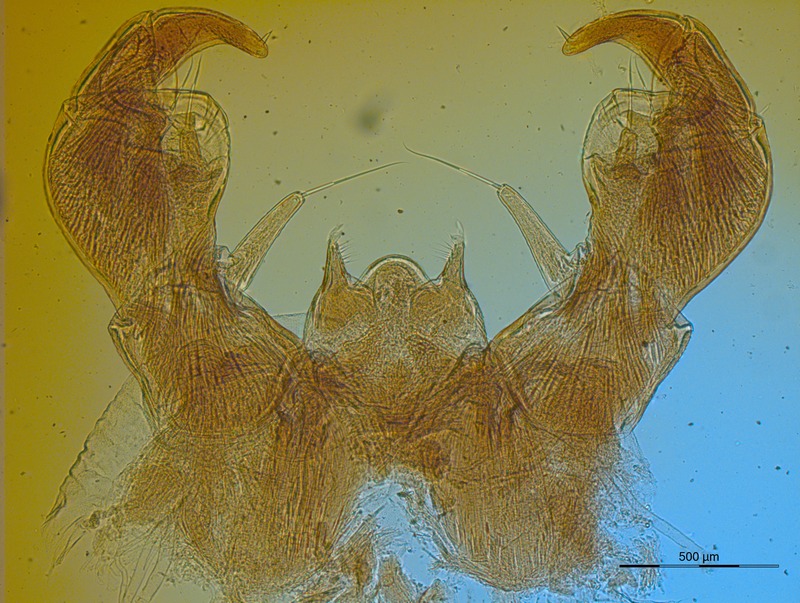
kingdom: Animalia
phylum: Arthropoda
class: Diplopoda
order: Glomerida
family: Glomeridae
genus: Glomeris
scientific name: Glomeris distichella
